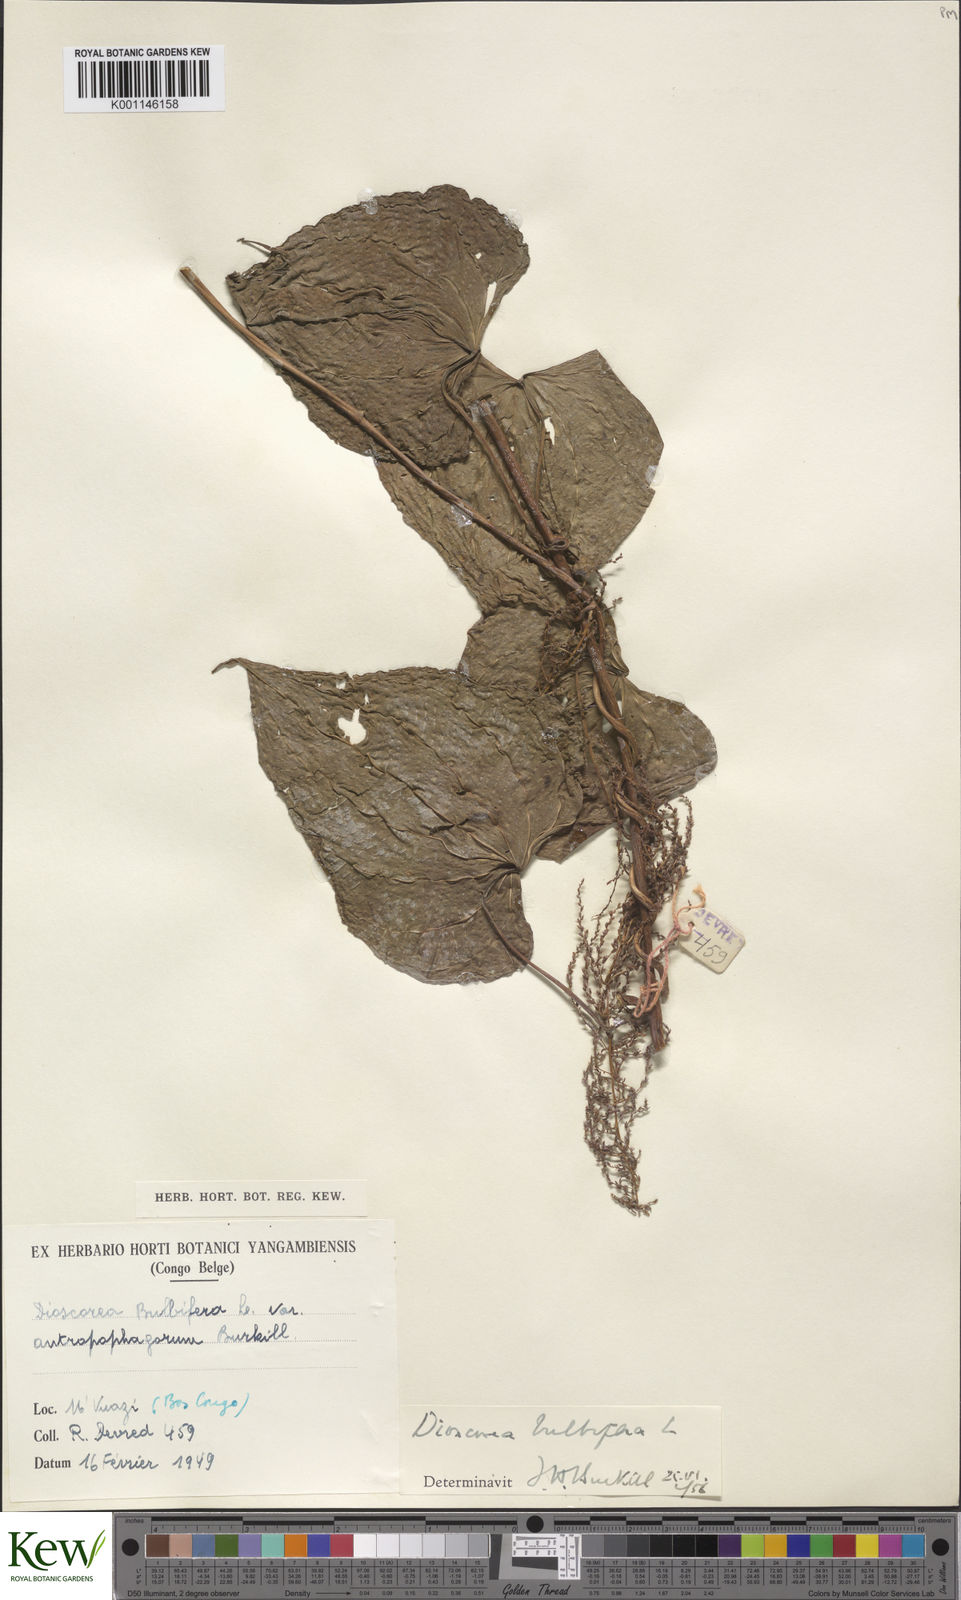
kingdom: Plantae
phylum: Tracheophyta
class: Liliopsida
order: Dioscoreales
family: Dioscoreaceae
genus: Dioscorea
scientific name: Dioscorea bulbifera
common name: Air yam
